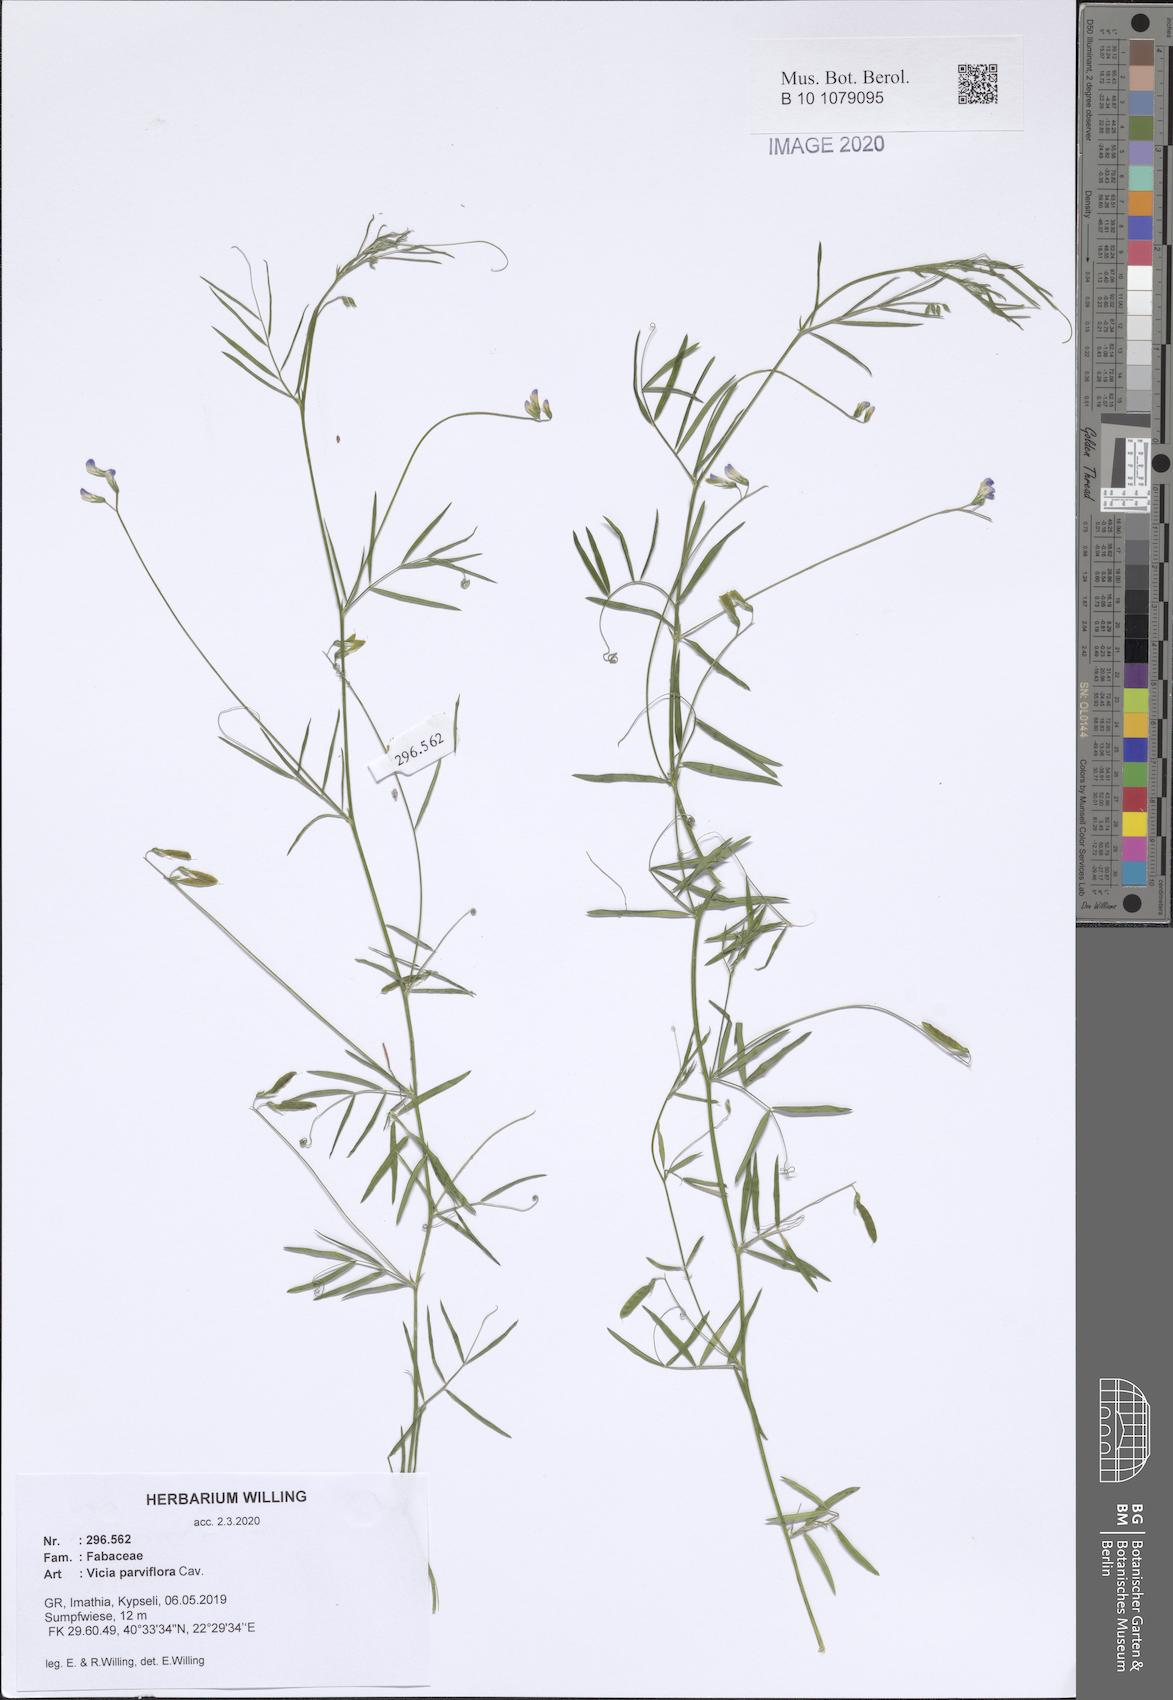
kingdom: Plantae
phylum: Tracheophyta
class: Magnoliopsida
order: Fabales
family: Fabaceae
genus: Vicia
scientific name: Vicia parviflora
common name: Slender tare
